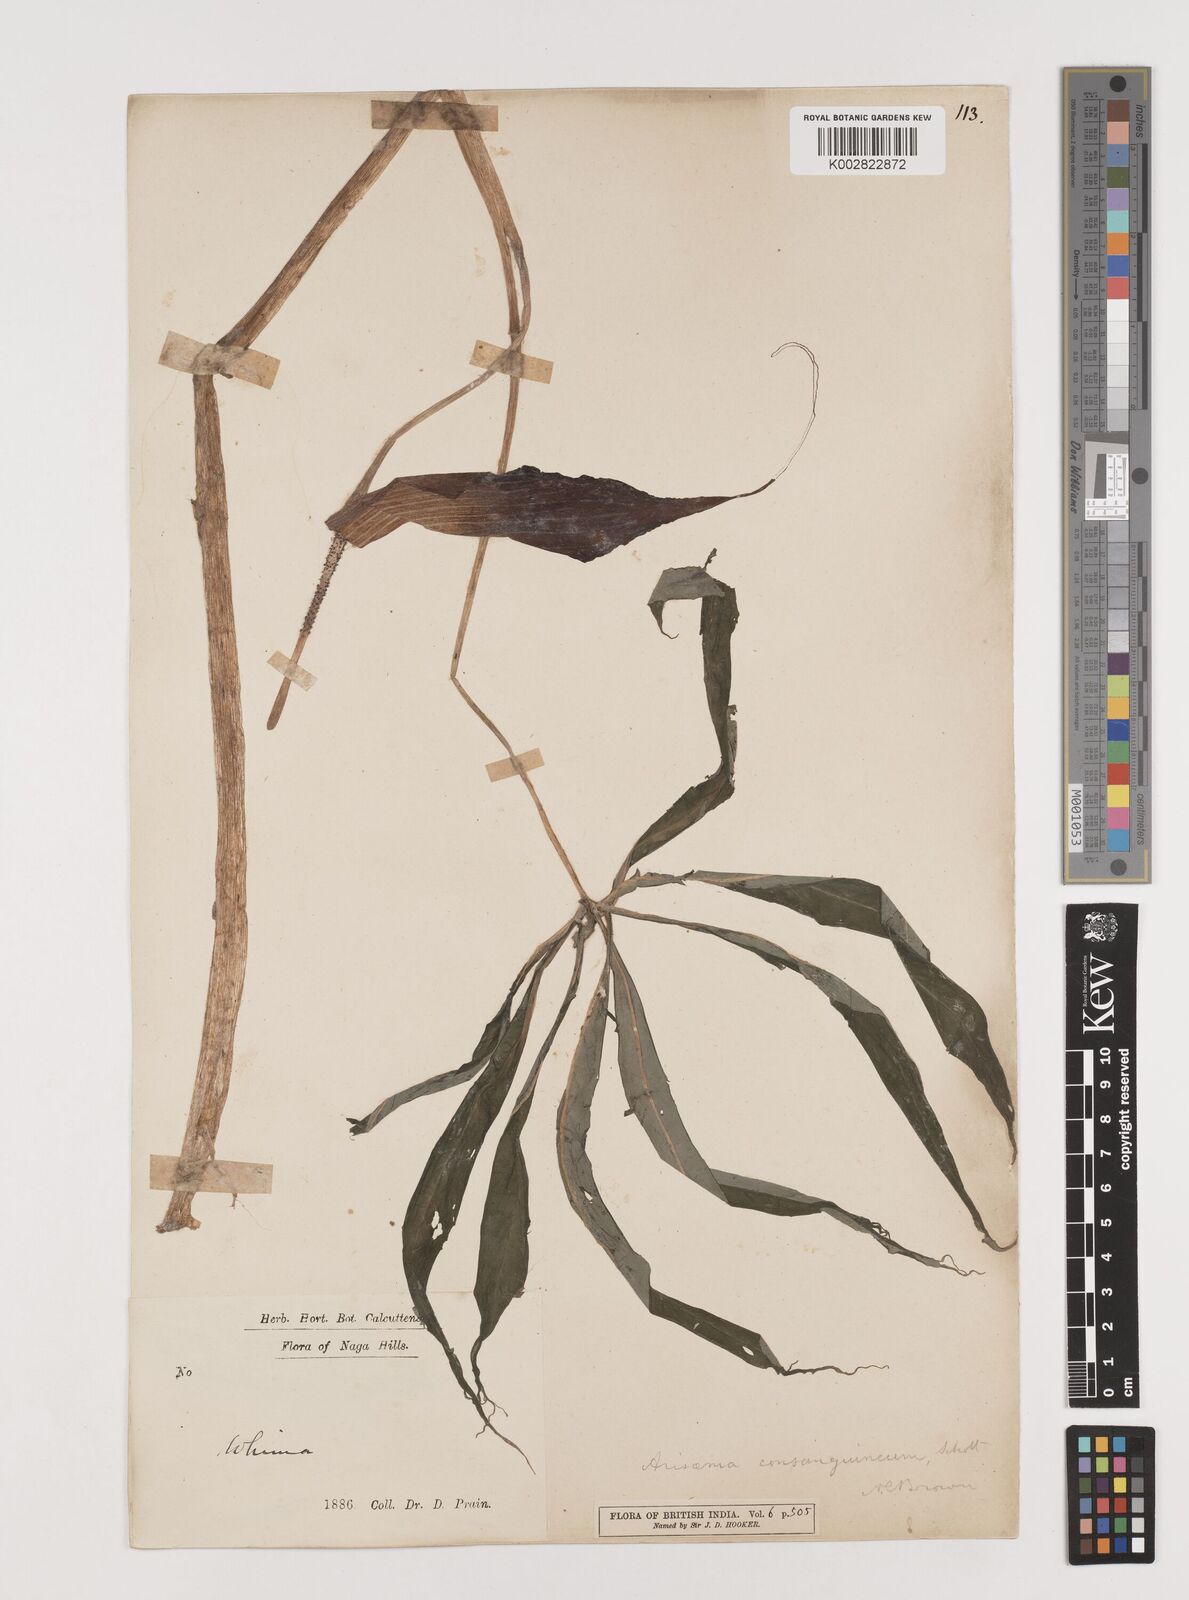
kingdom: Plantae
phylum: Tracheophyta
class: Liliopsida
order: Alismatales
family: Araceae
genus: Arisaema
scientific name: Arisaema erubescens
